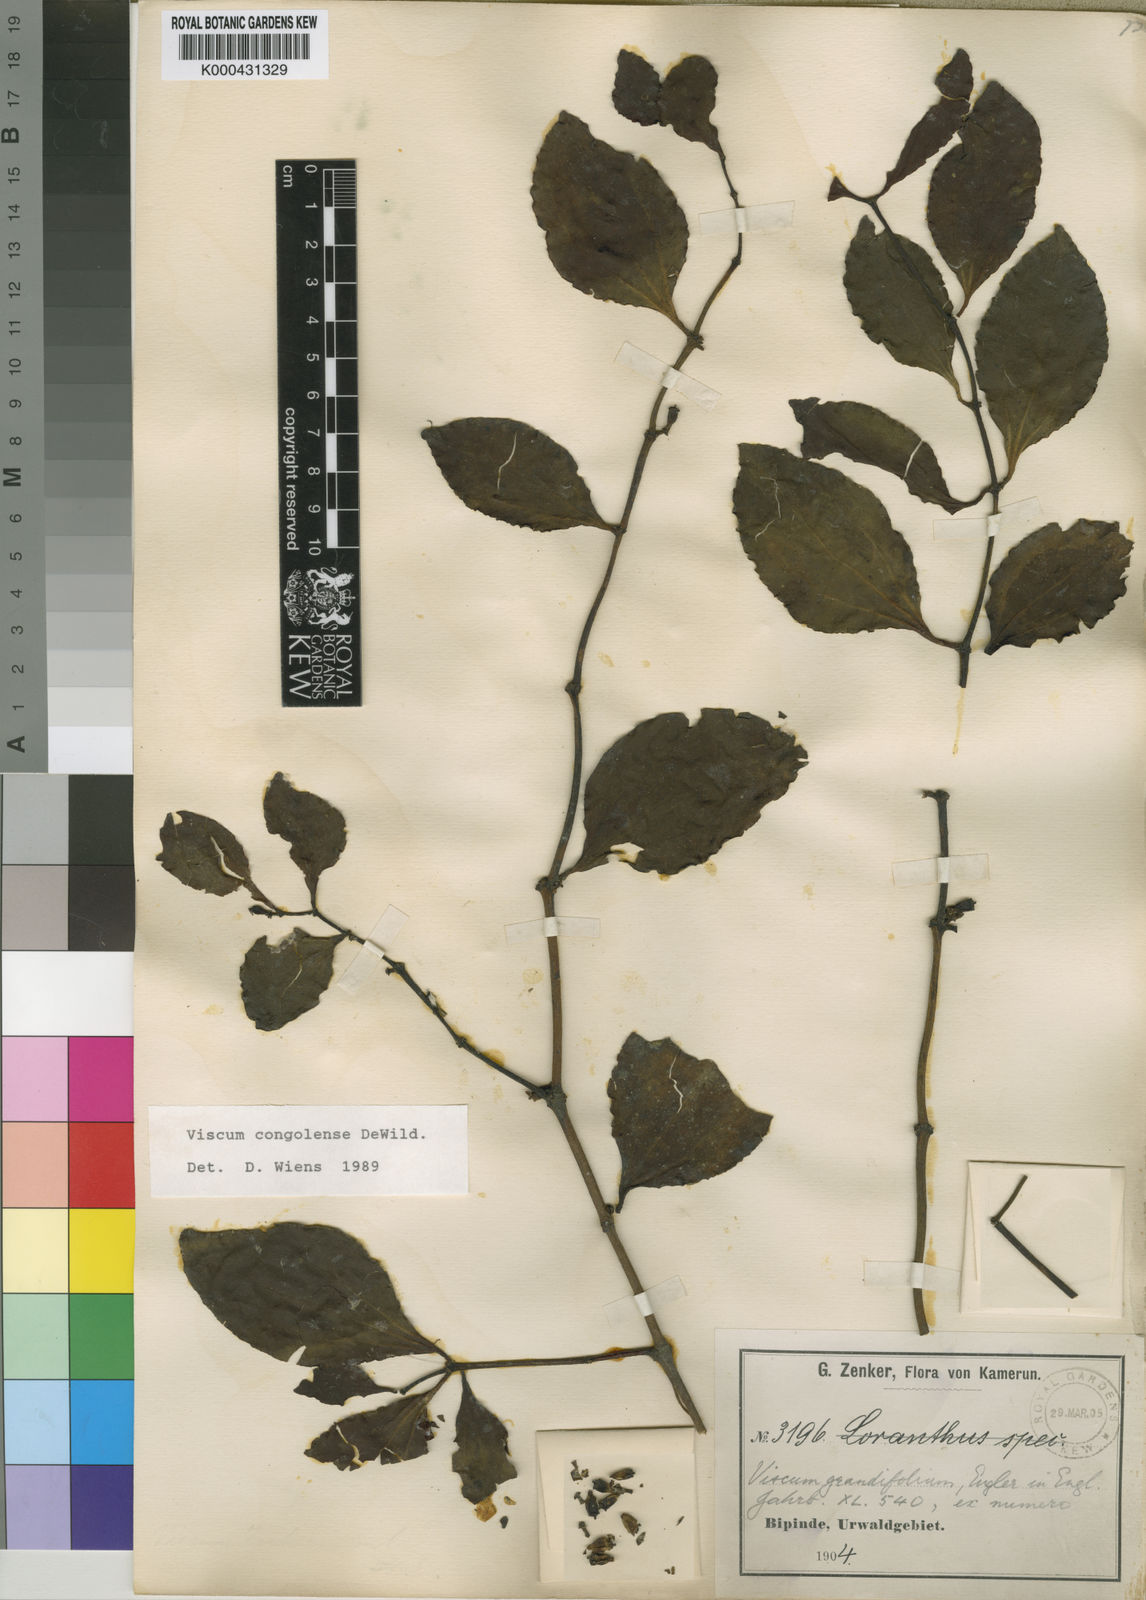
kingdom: Plantae
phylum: Tracheophyta
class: Magnoliopsida
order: Santalales
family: Viscaceae
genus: Viscum
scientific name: Viscum congolense
